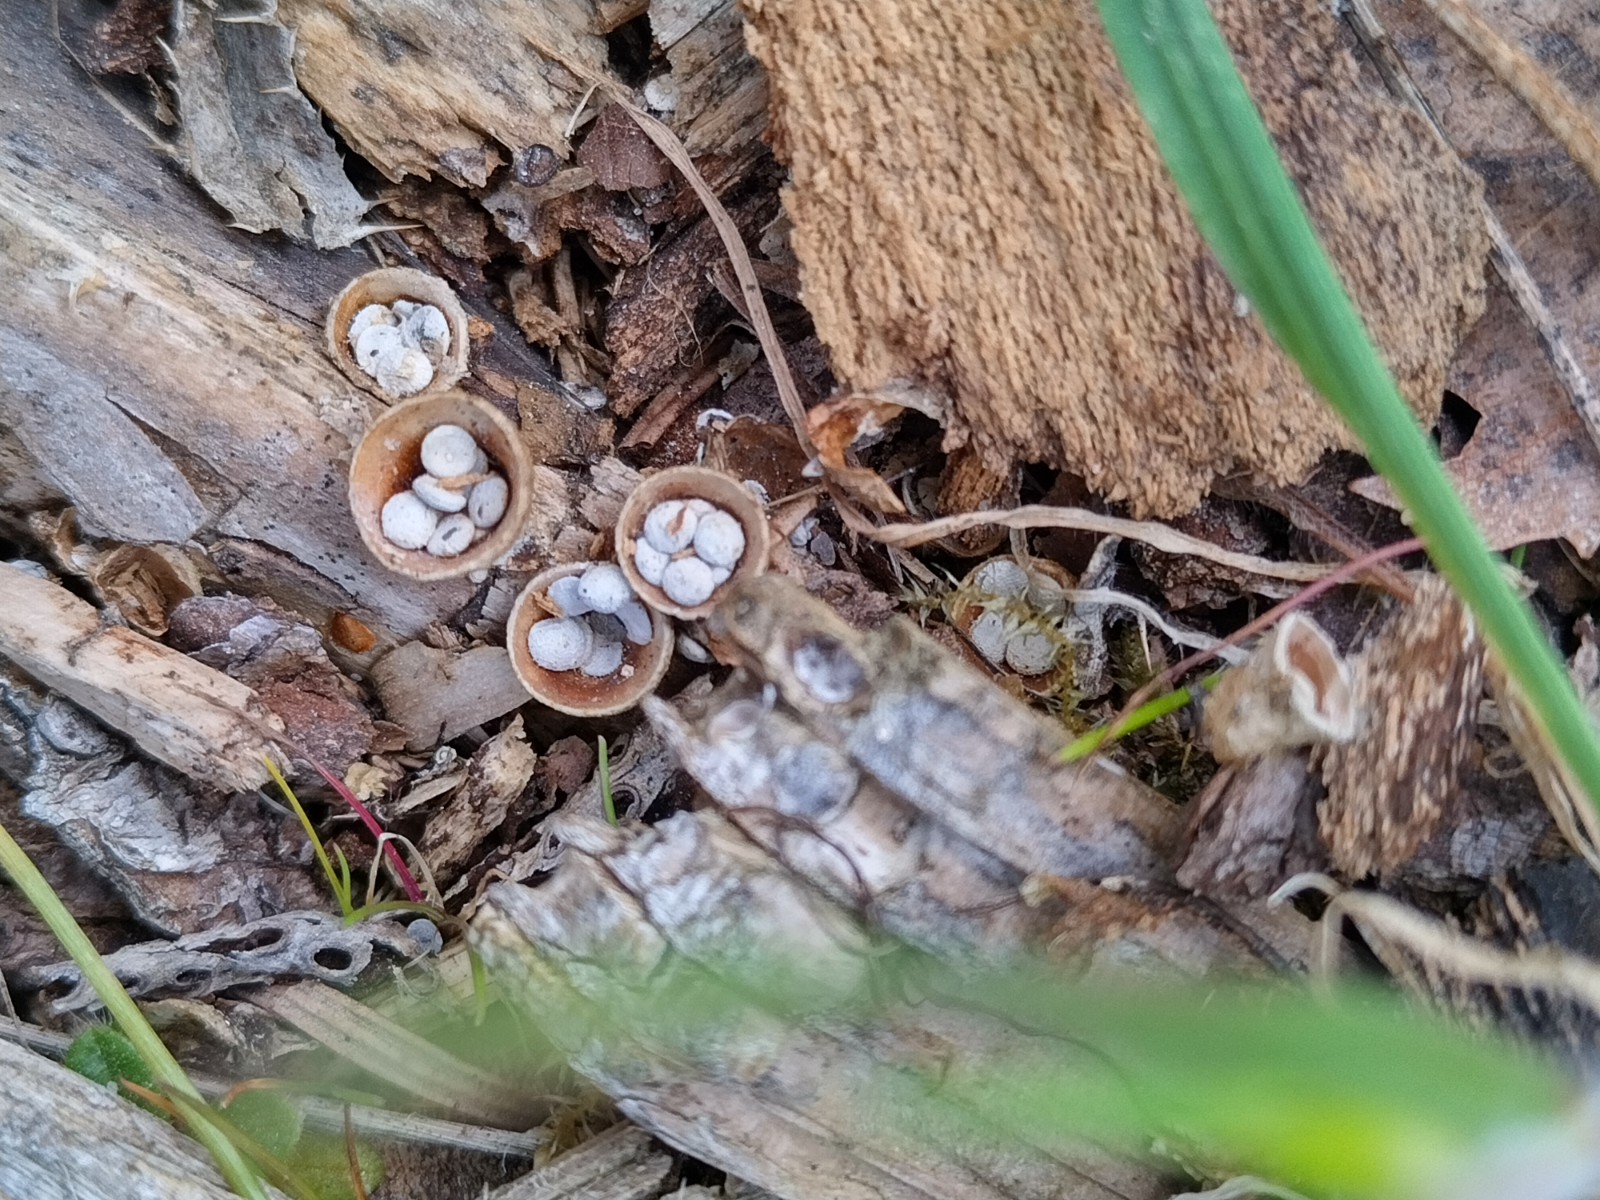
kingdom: Fungi
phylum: Basidiomycota
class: Agaricomycetes
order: Agaricales
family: Nidulariaceae
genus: Crucibulum
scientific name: Crucibulum crucibuliforme
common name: krukkesvamp
